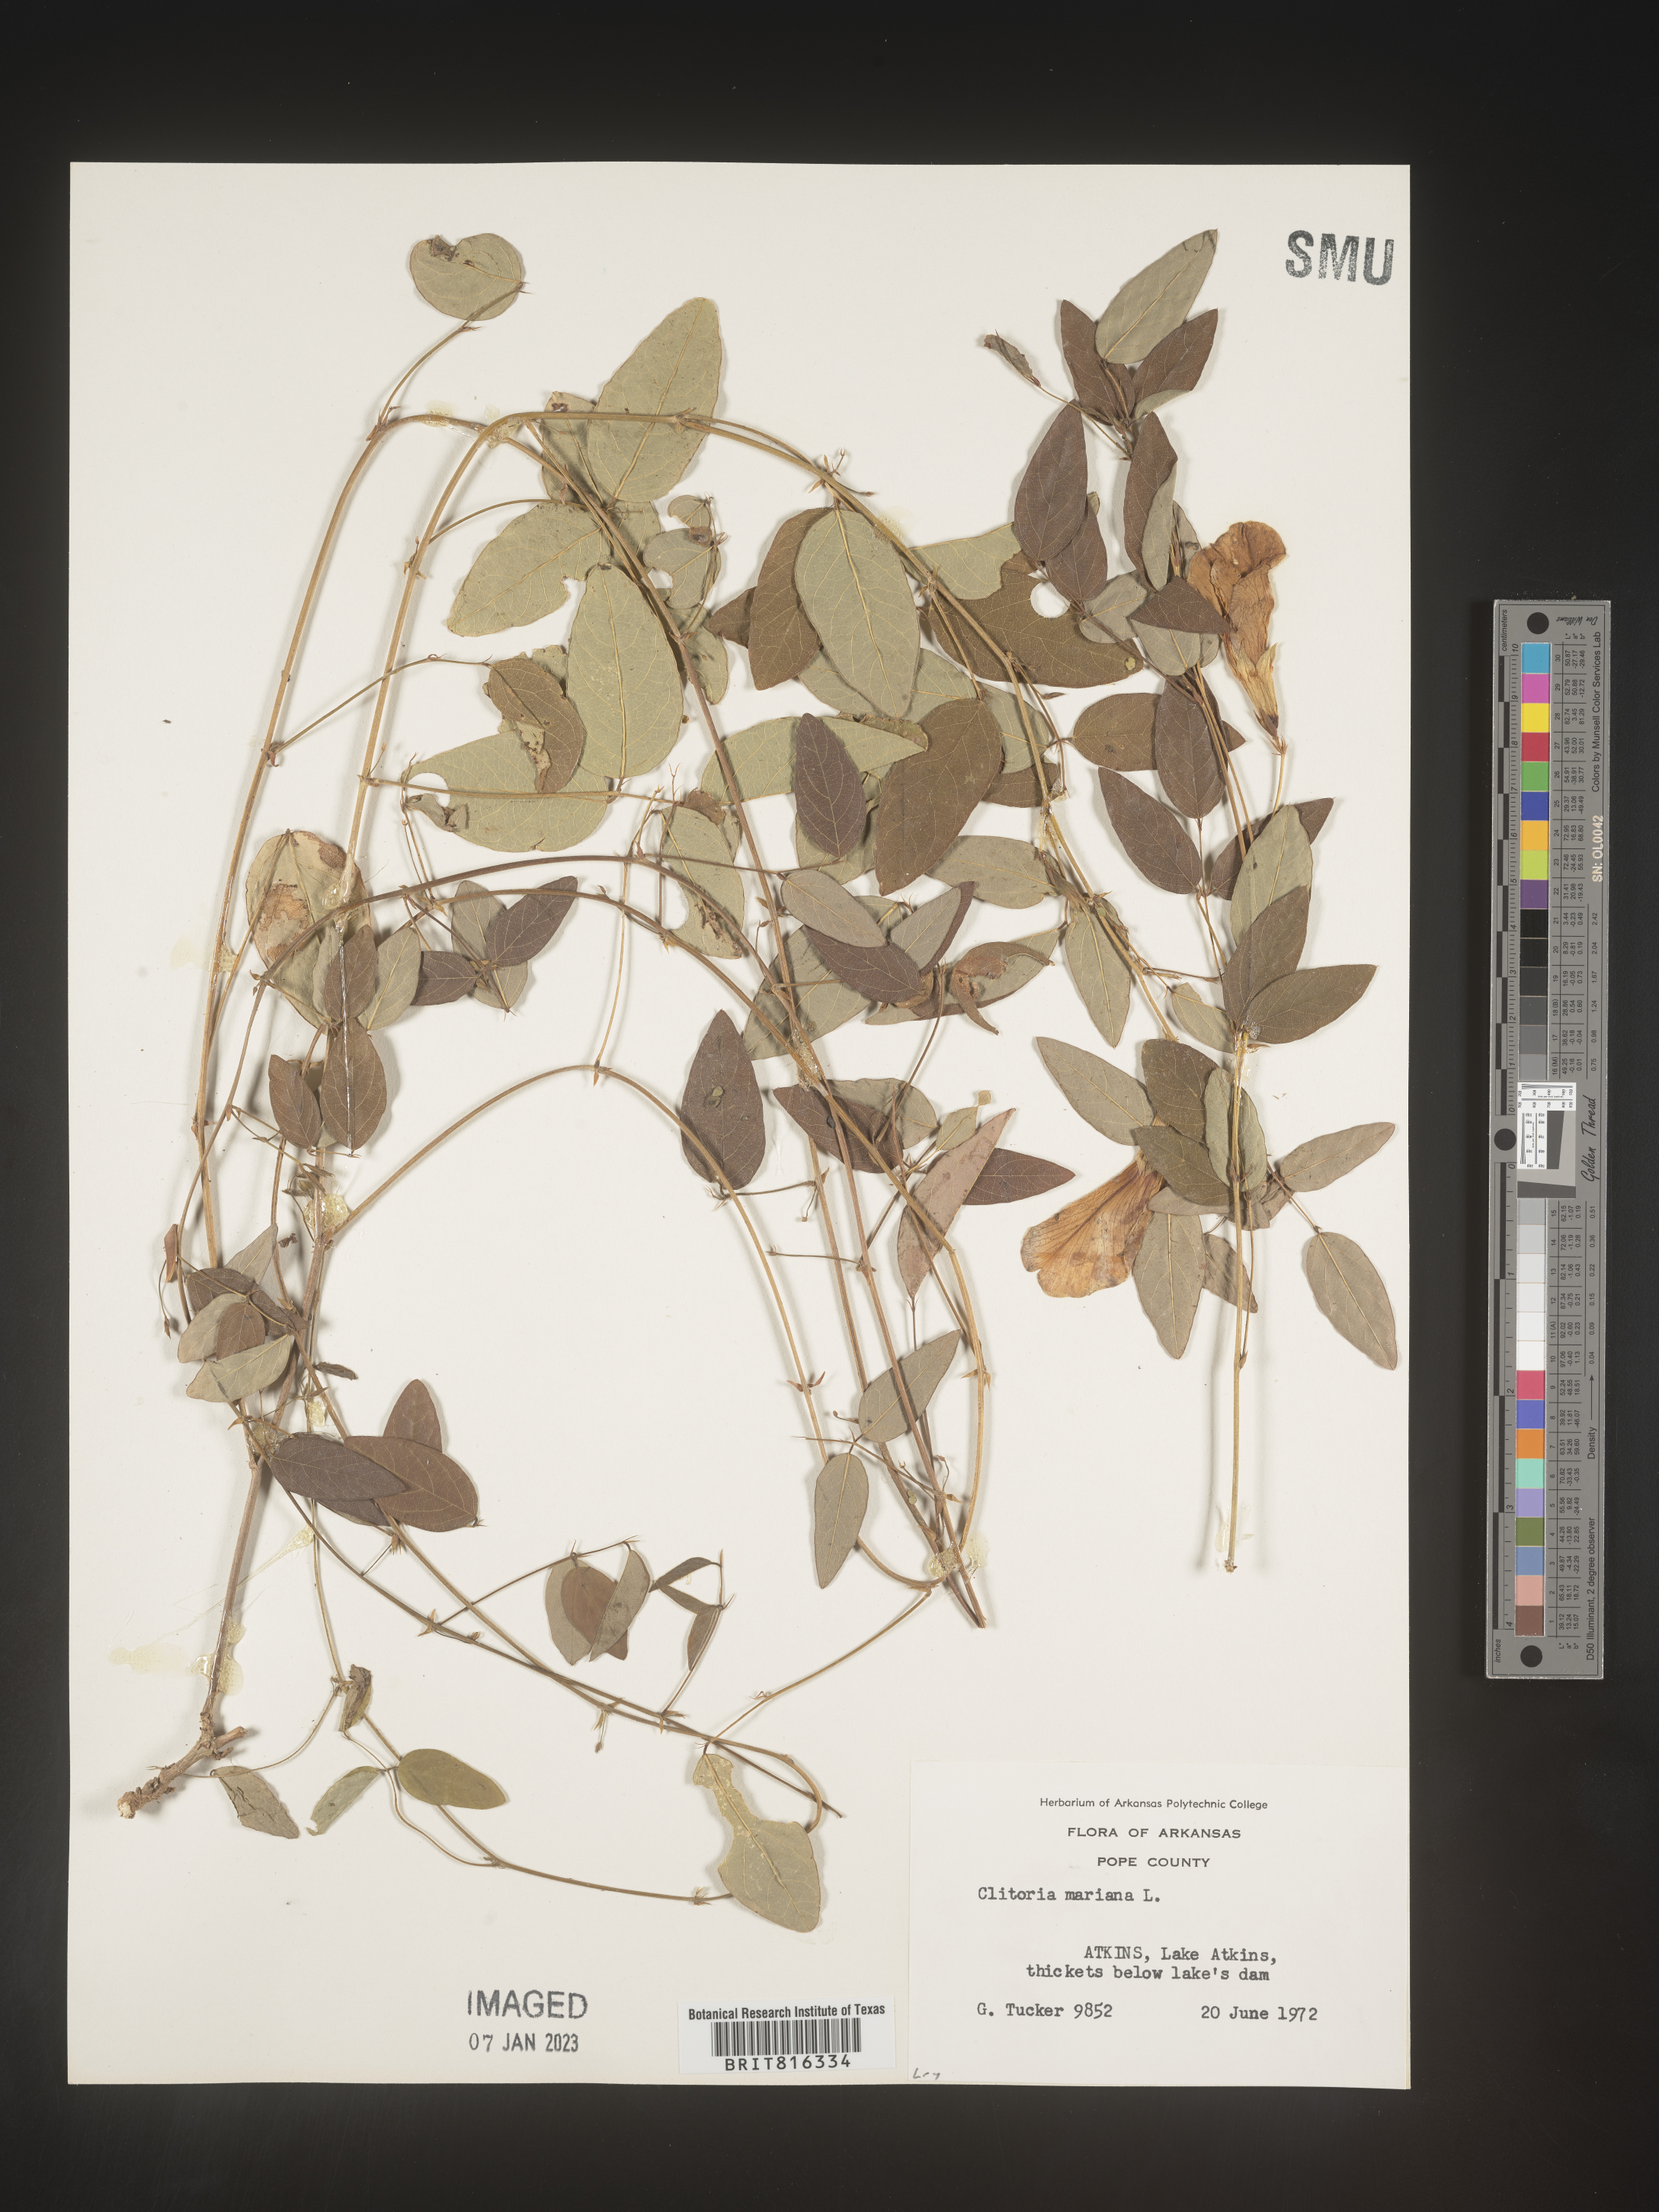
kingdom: Plantae
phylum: Tracheophyta
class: Magnoliopsida
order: Fabales
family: Fabaceae
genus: Clitoria
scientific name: Clitoria mariana
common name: Butterfly-pea
